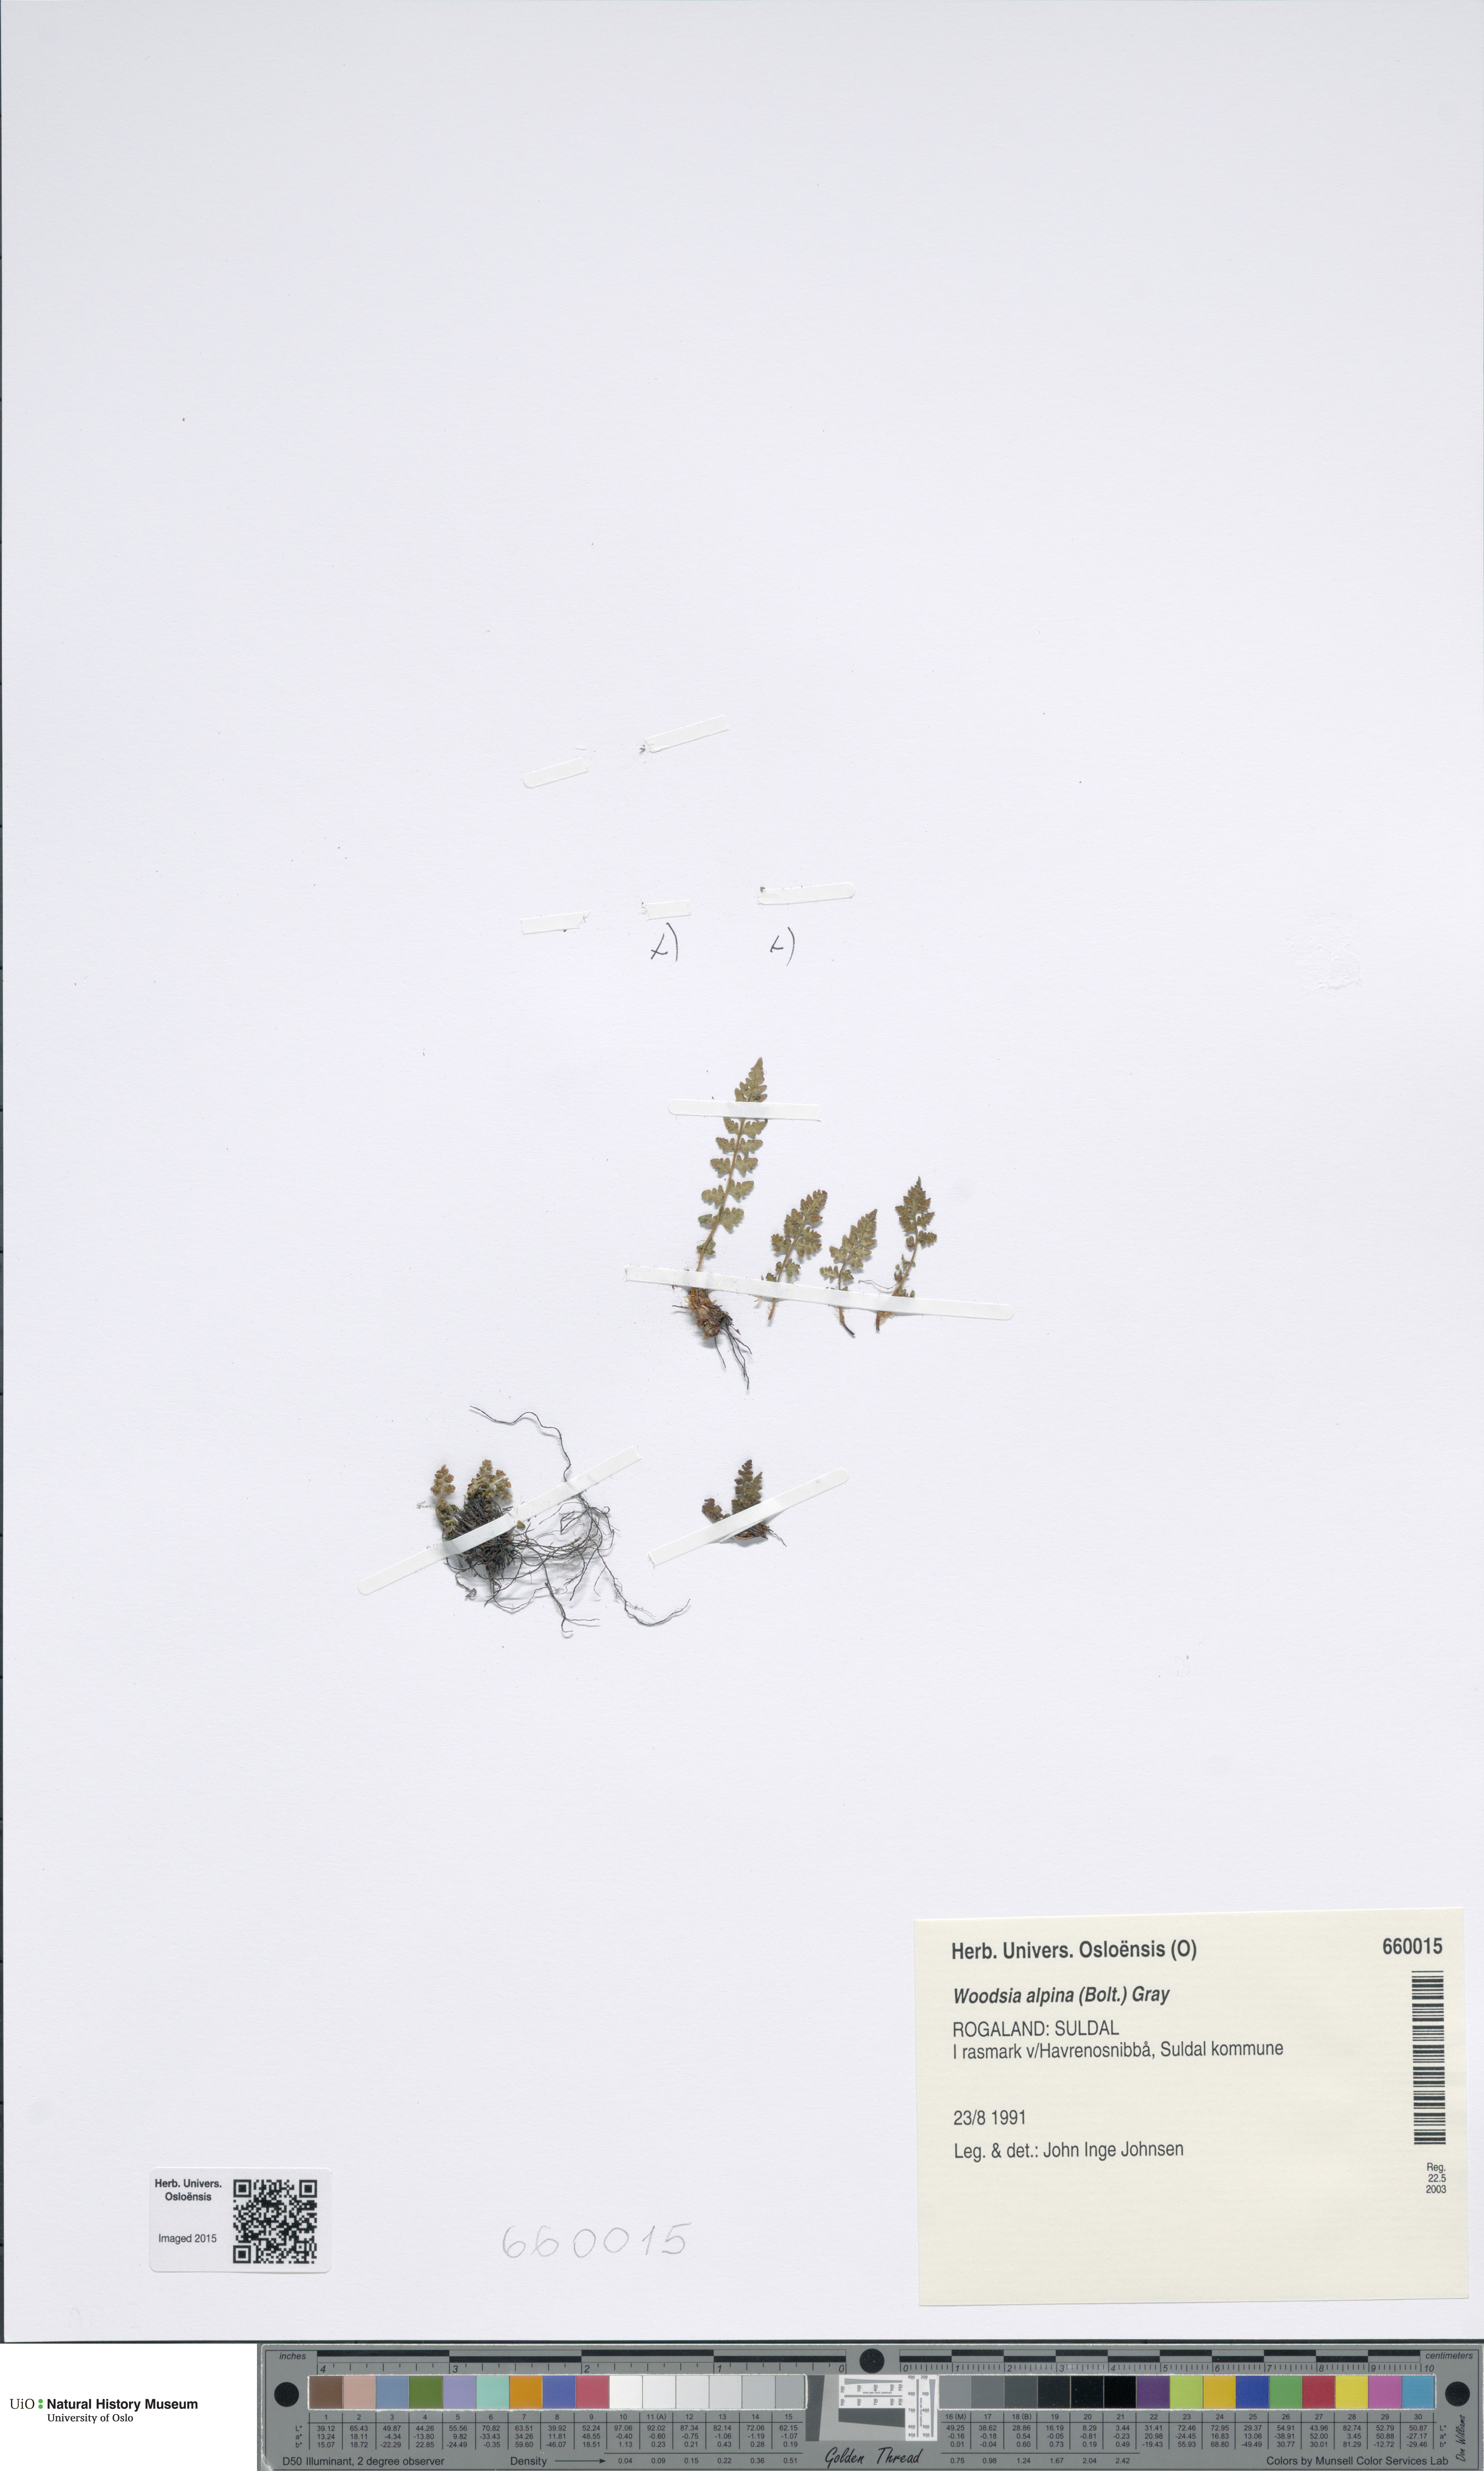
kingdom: Plantae
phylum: Tracheophyta
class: Polypodiopsida
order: Polypodiales
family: Woodsiaceae
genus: Woodsia
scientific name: Woodsia alpina
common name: Alpine woodsia
